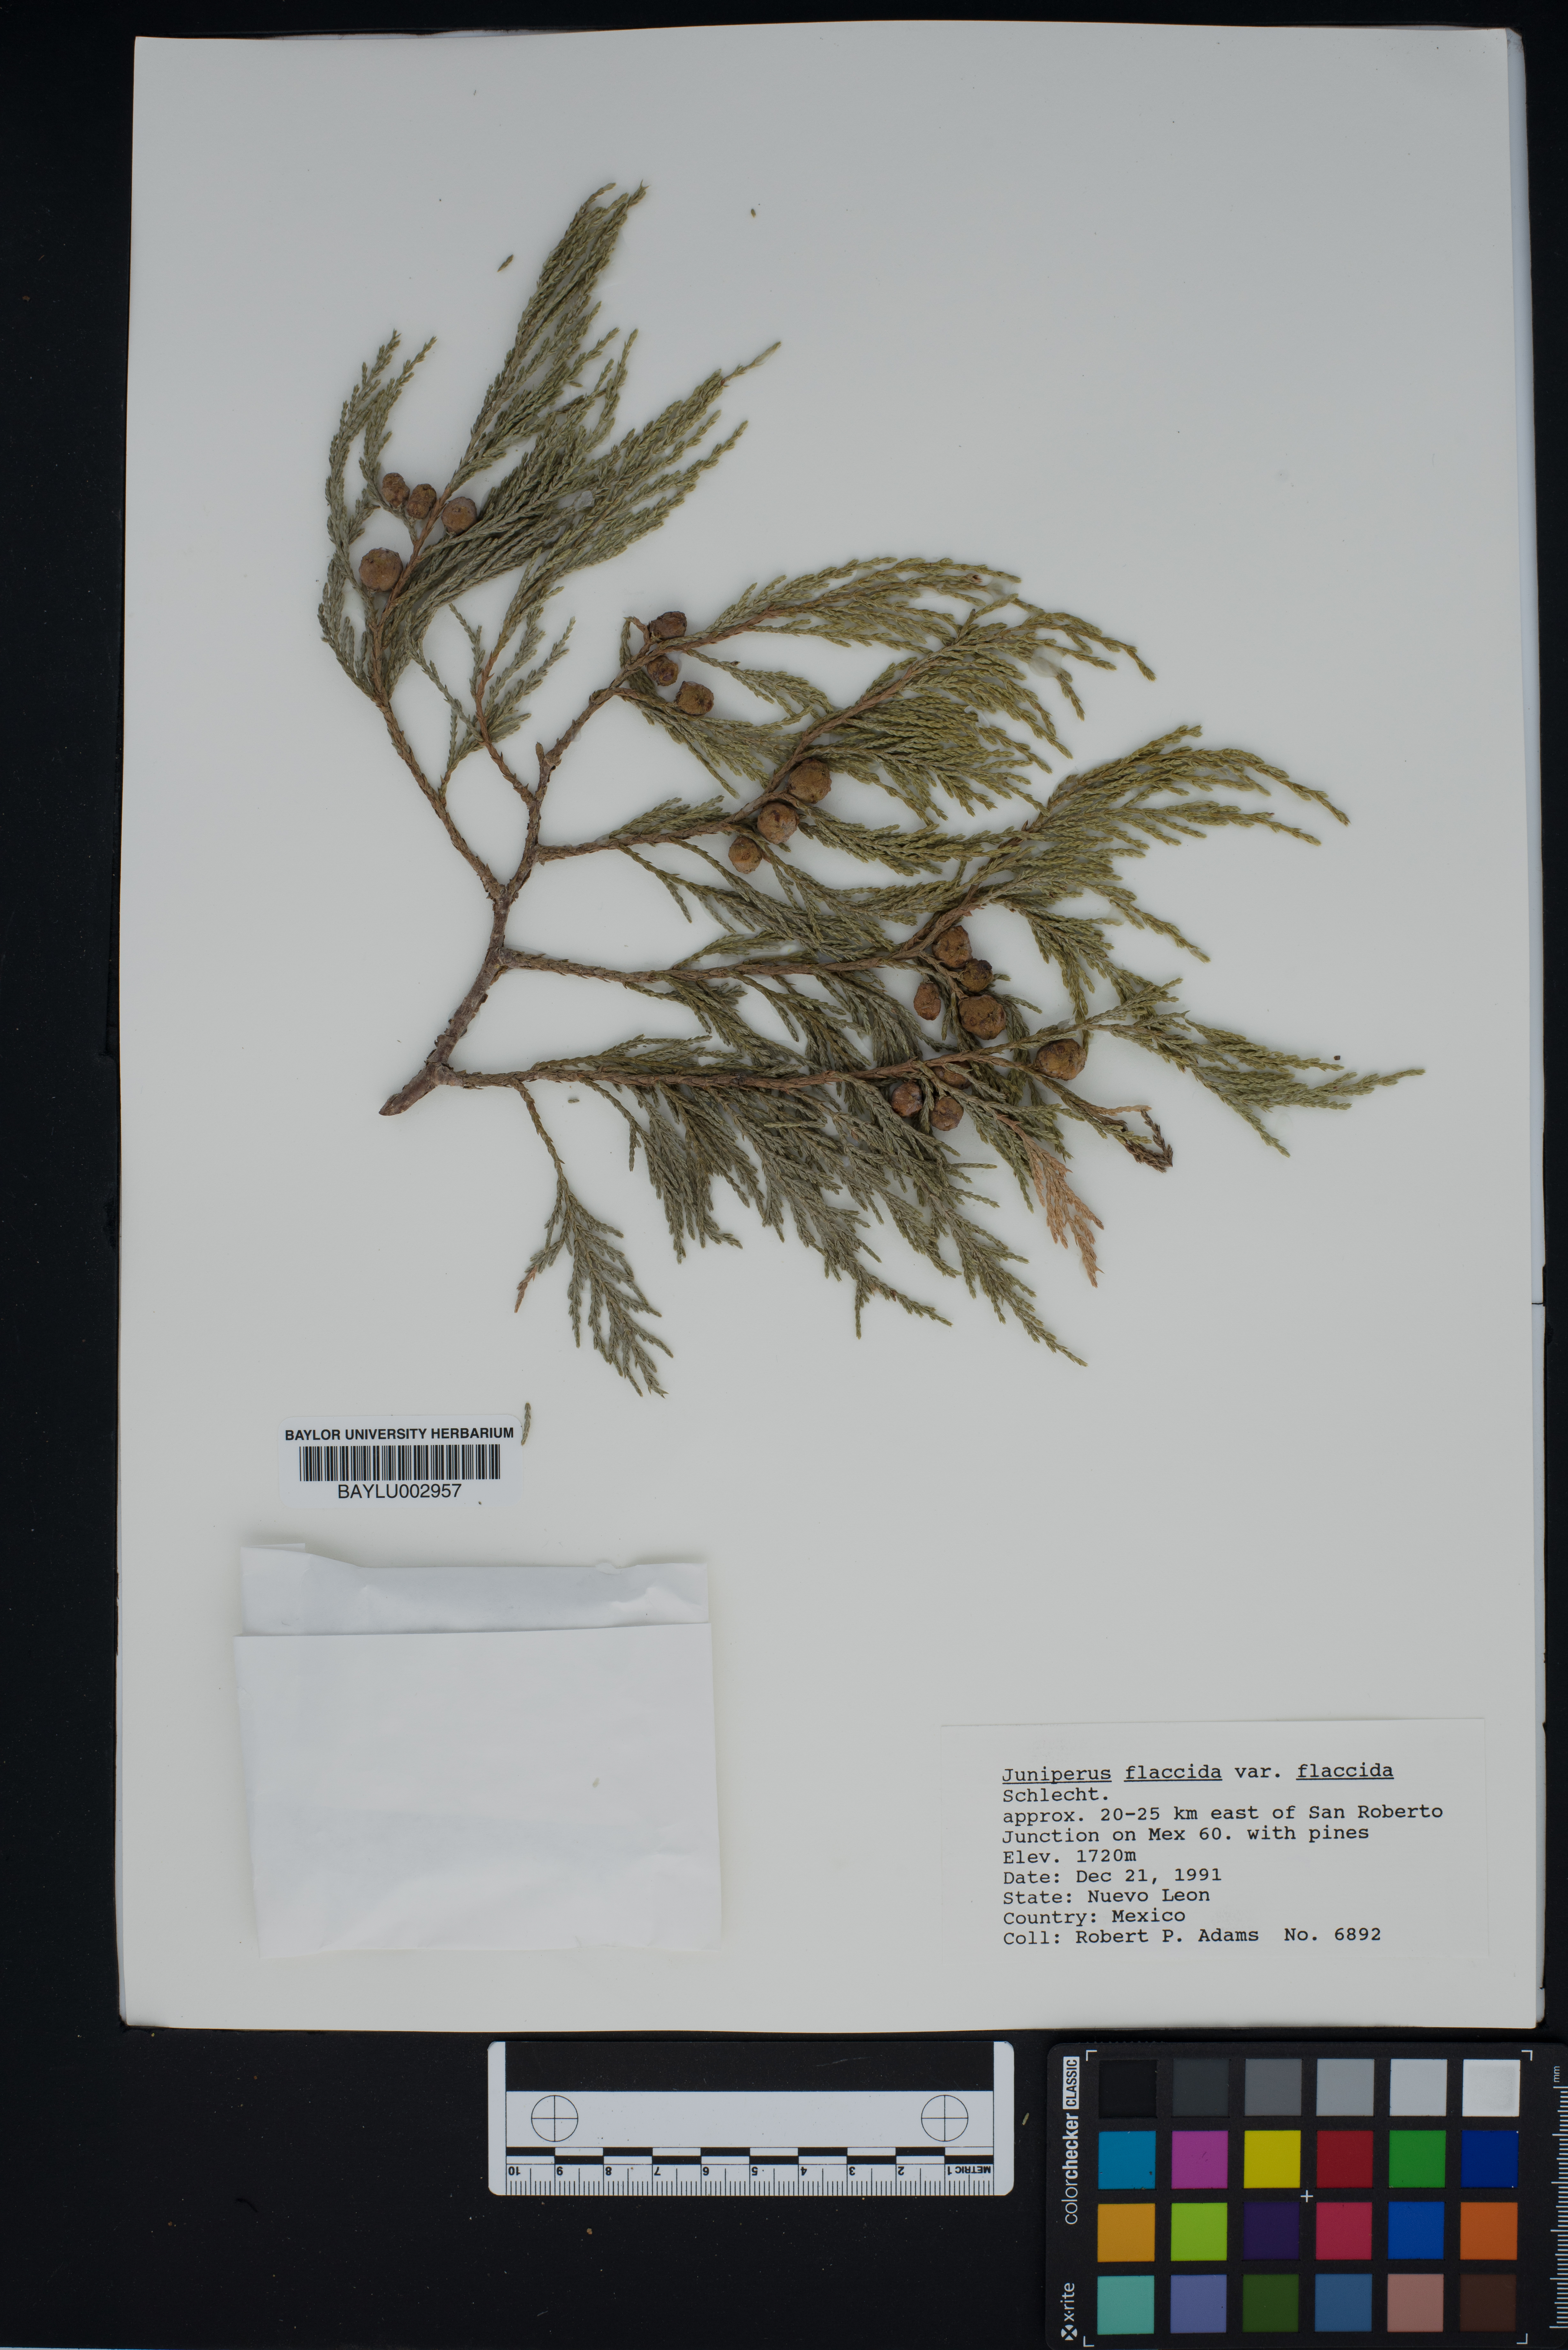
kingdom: Plantae
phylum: Tracheophyta
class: Pinopsida
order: Pinales
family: Cupressaceae
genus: Juniperus
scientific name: Juniperus flaccida
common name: Drooping juniper
